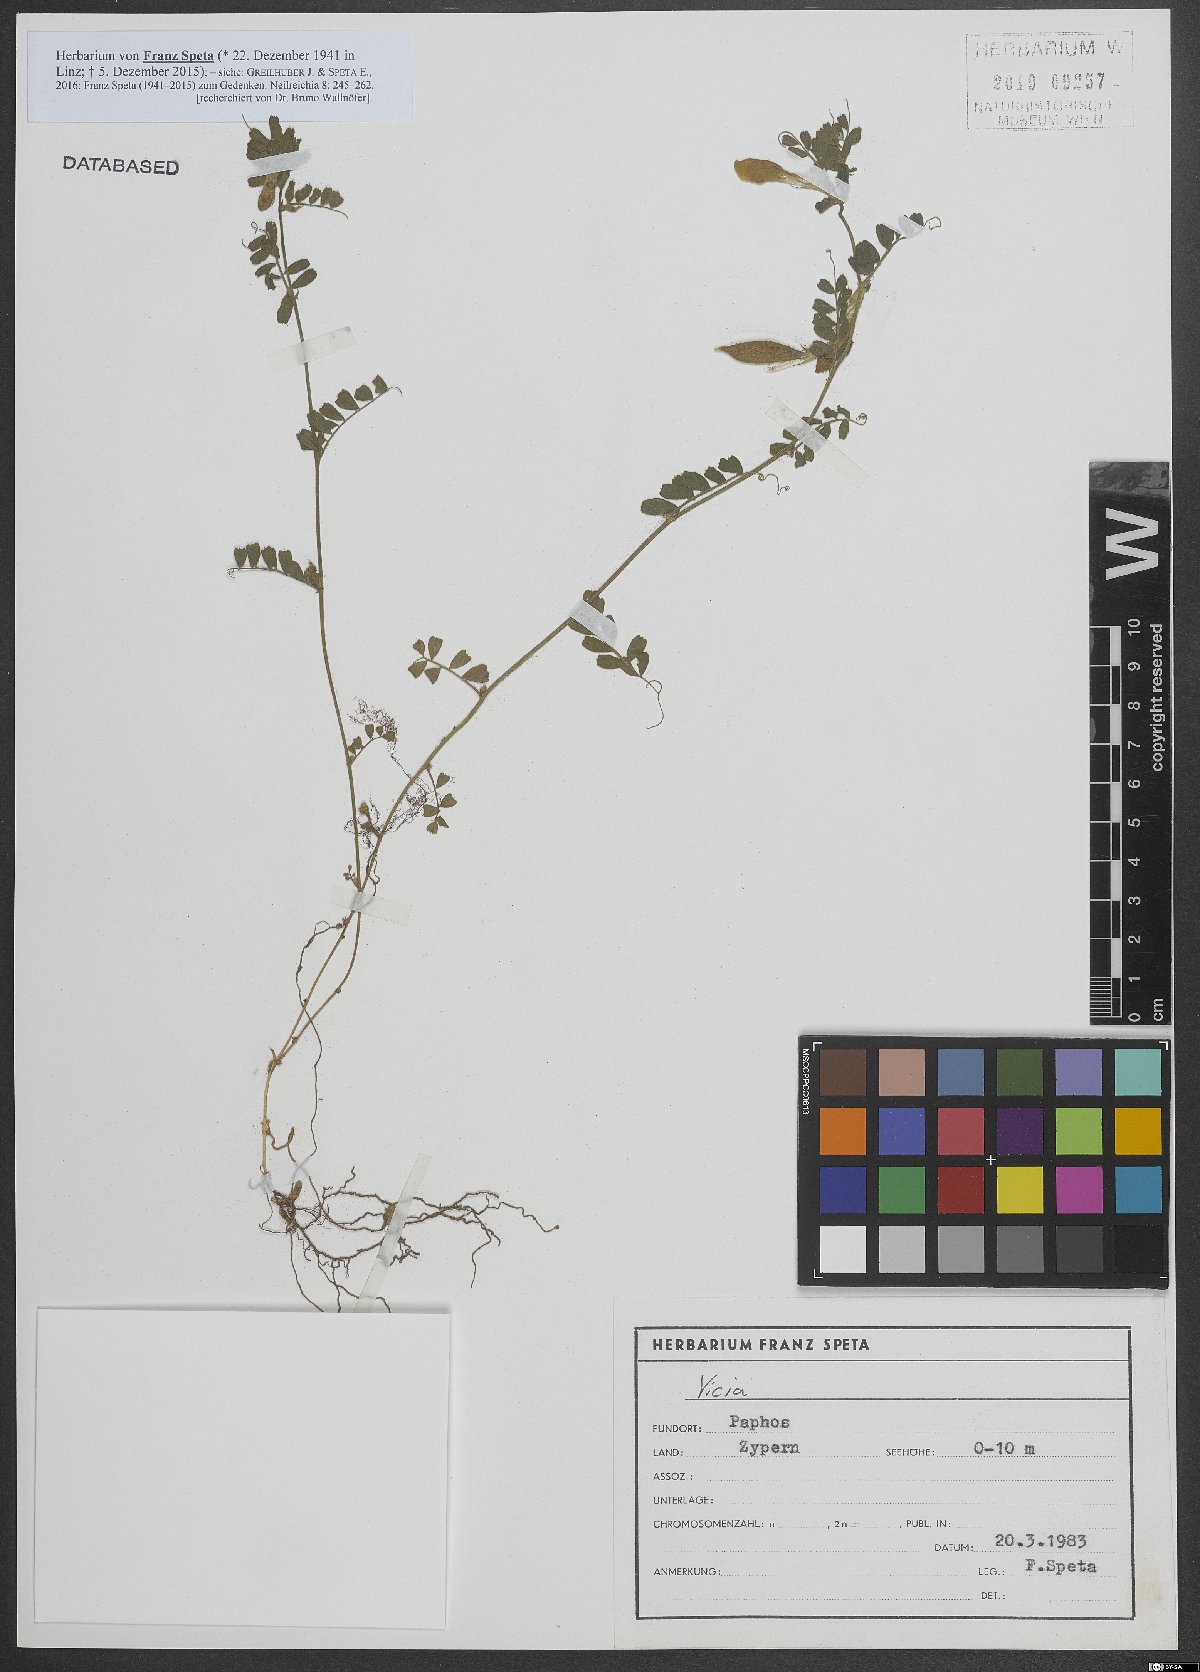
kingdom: Plantae
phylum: Tracheophyta
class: Magnoliopsida
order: Fabales
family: Fabaceae
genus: Vicia
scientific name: Vicia
